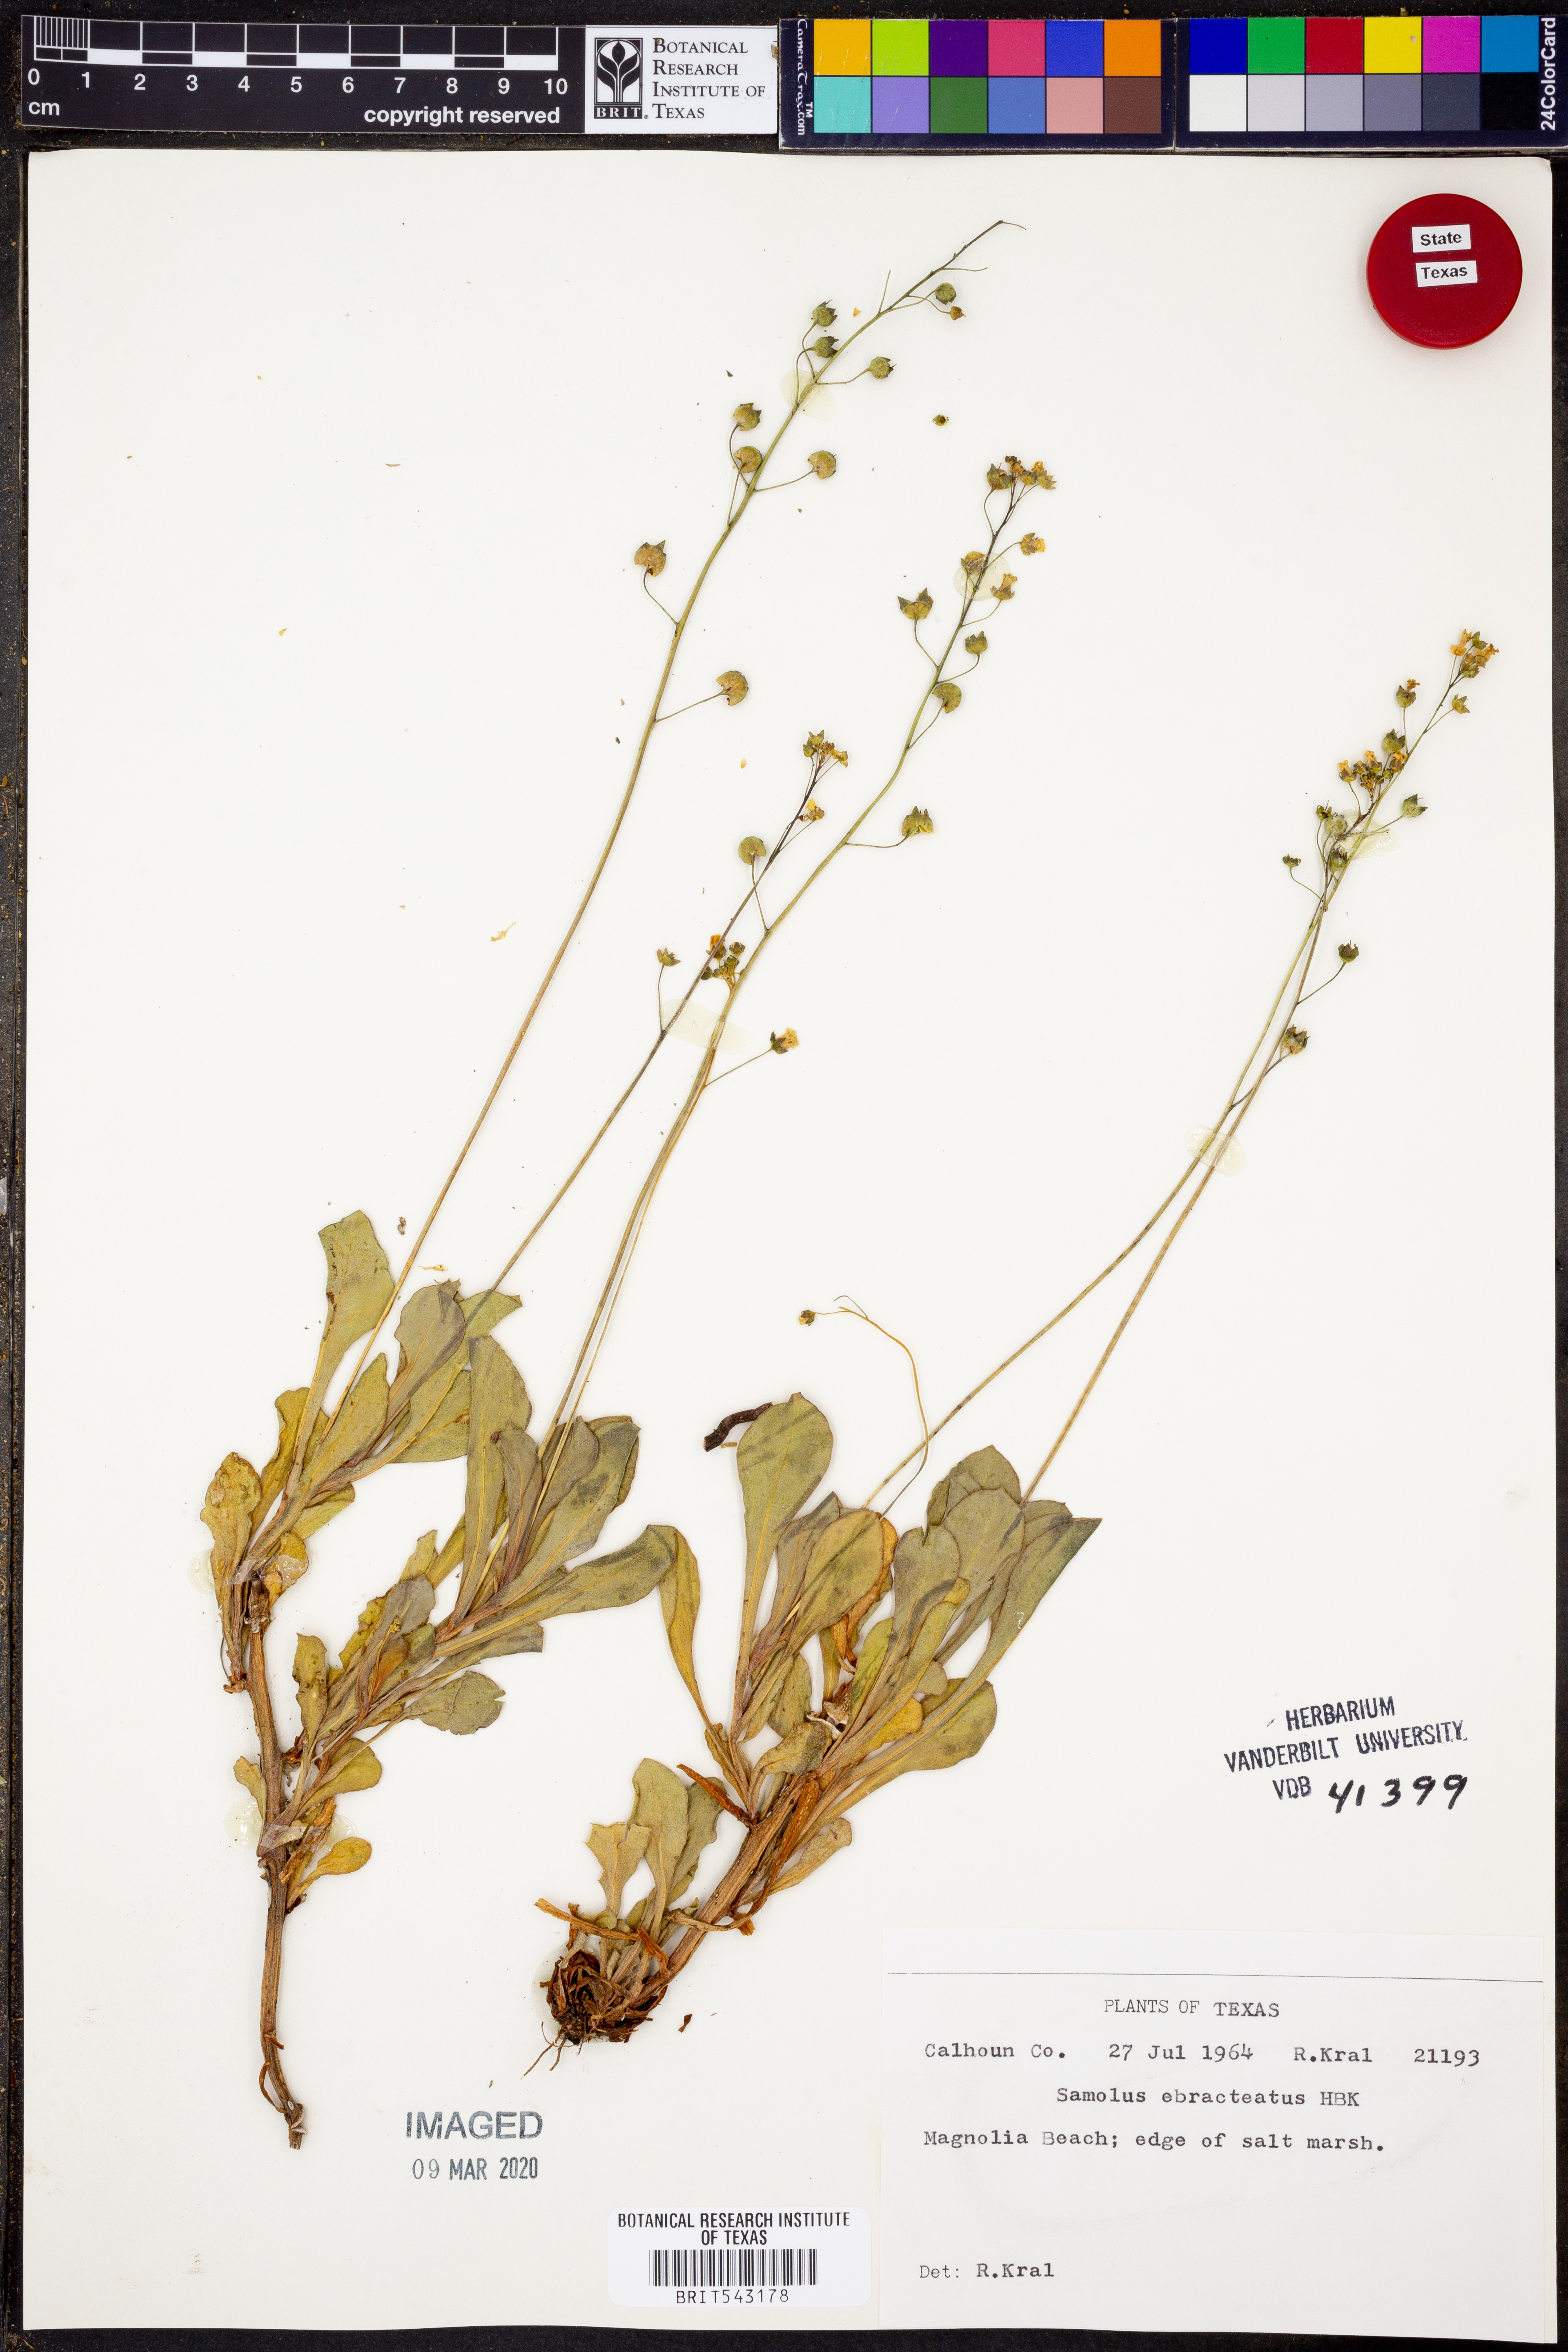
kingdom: Plantae
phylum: Tracheophyta
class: Magnoliopsida
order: Ericales
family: Primulaceae
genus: Samolus
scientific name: Samolus ebracteatus
